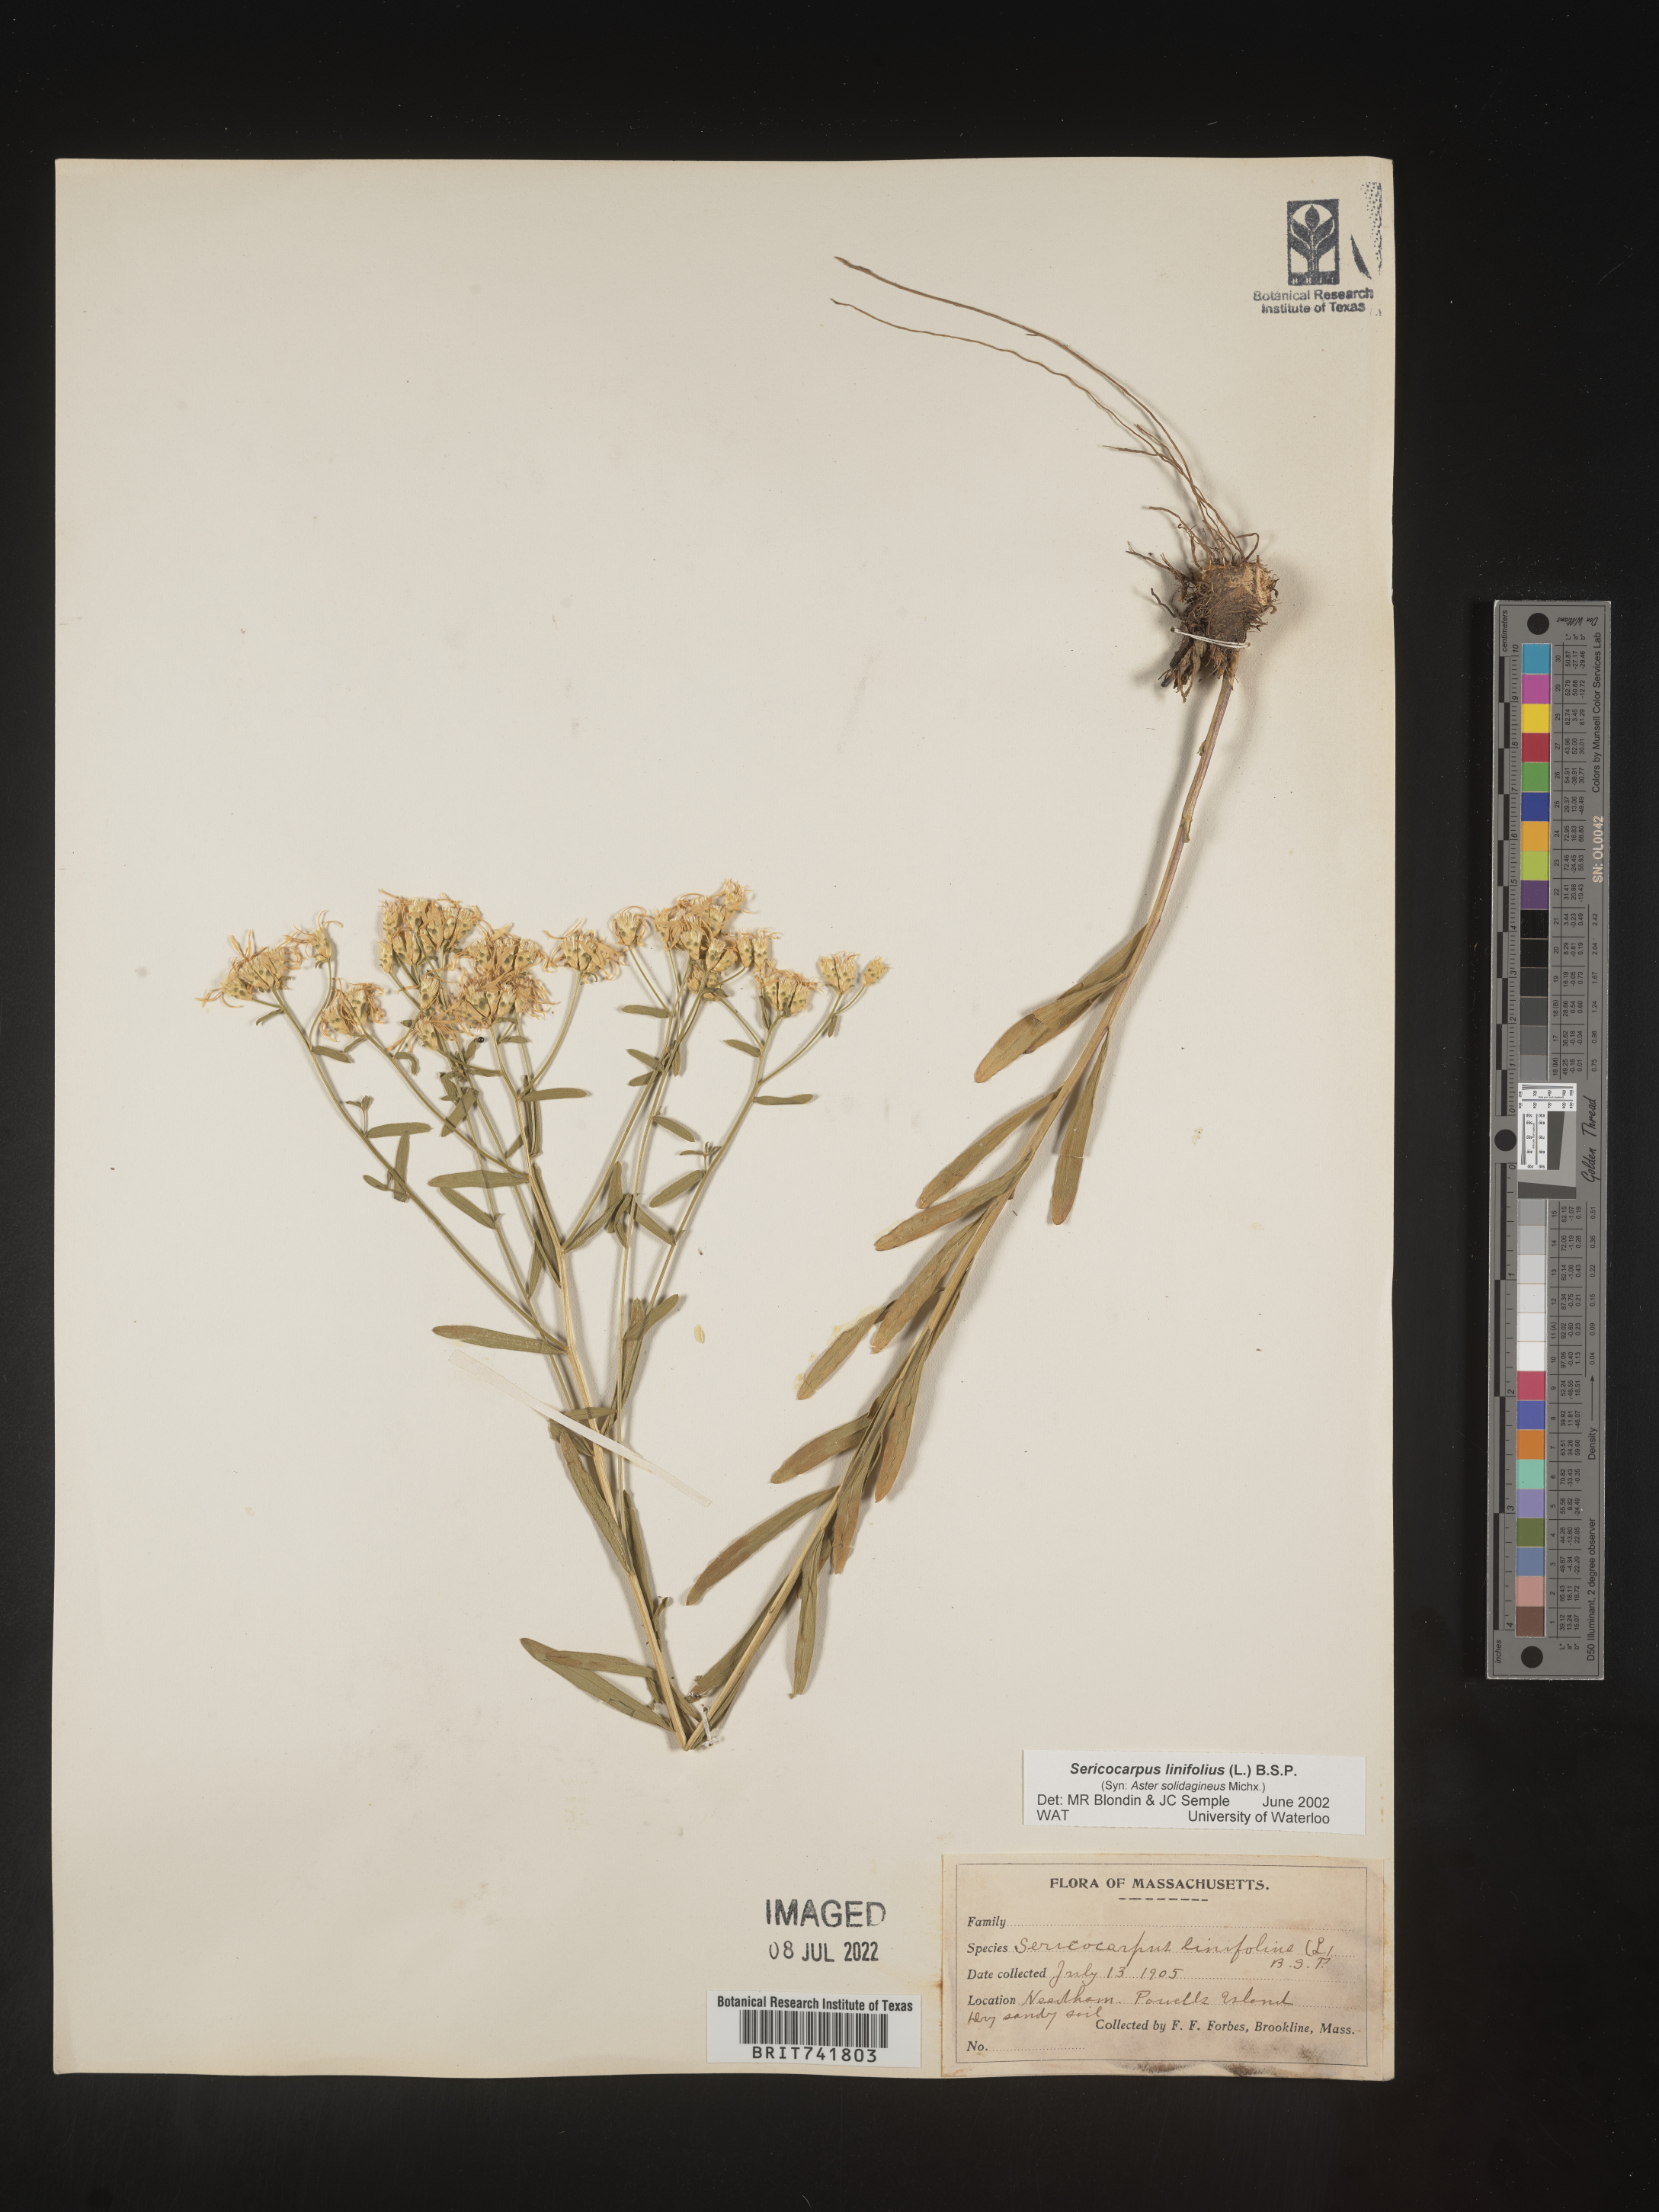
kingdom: Plantae
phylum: Tracheophyta
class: Magnoliopsida
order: Asterales
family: Asteraceae
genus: Sericocarpus
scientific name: Sericocarpus linifolius
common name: Narrow-leaf aster
